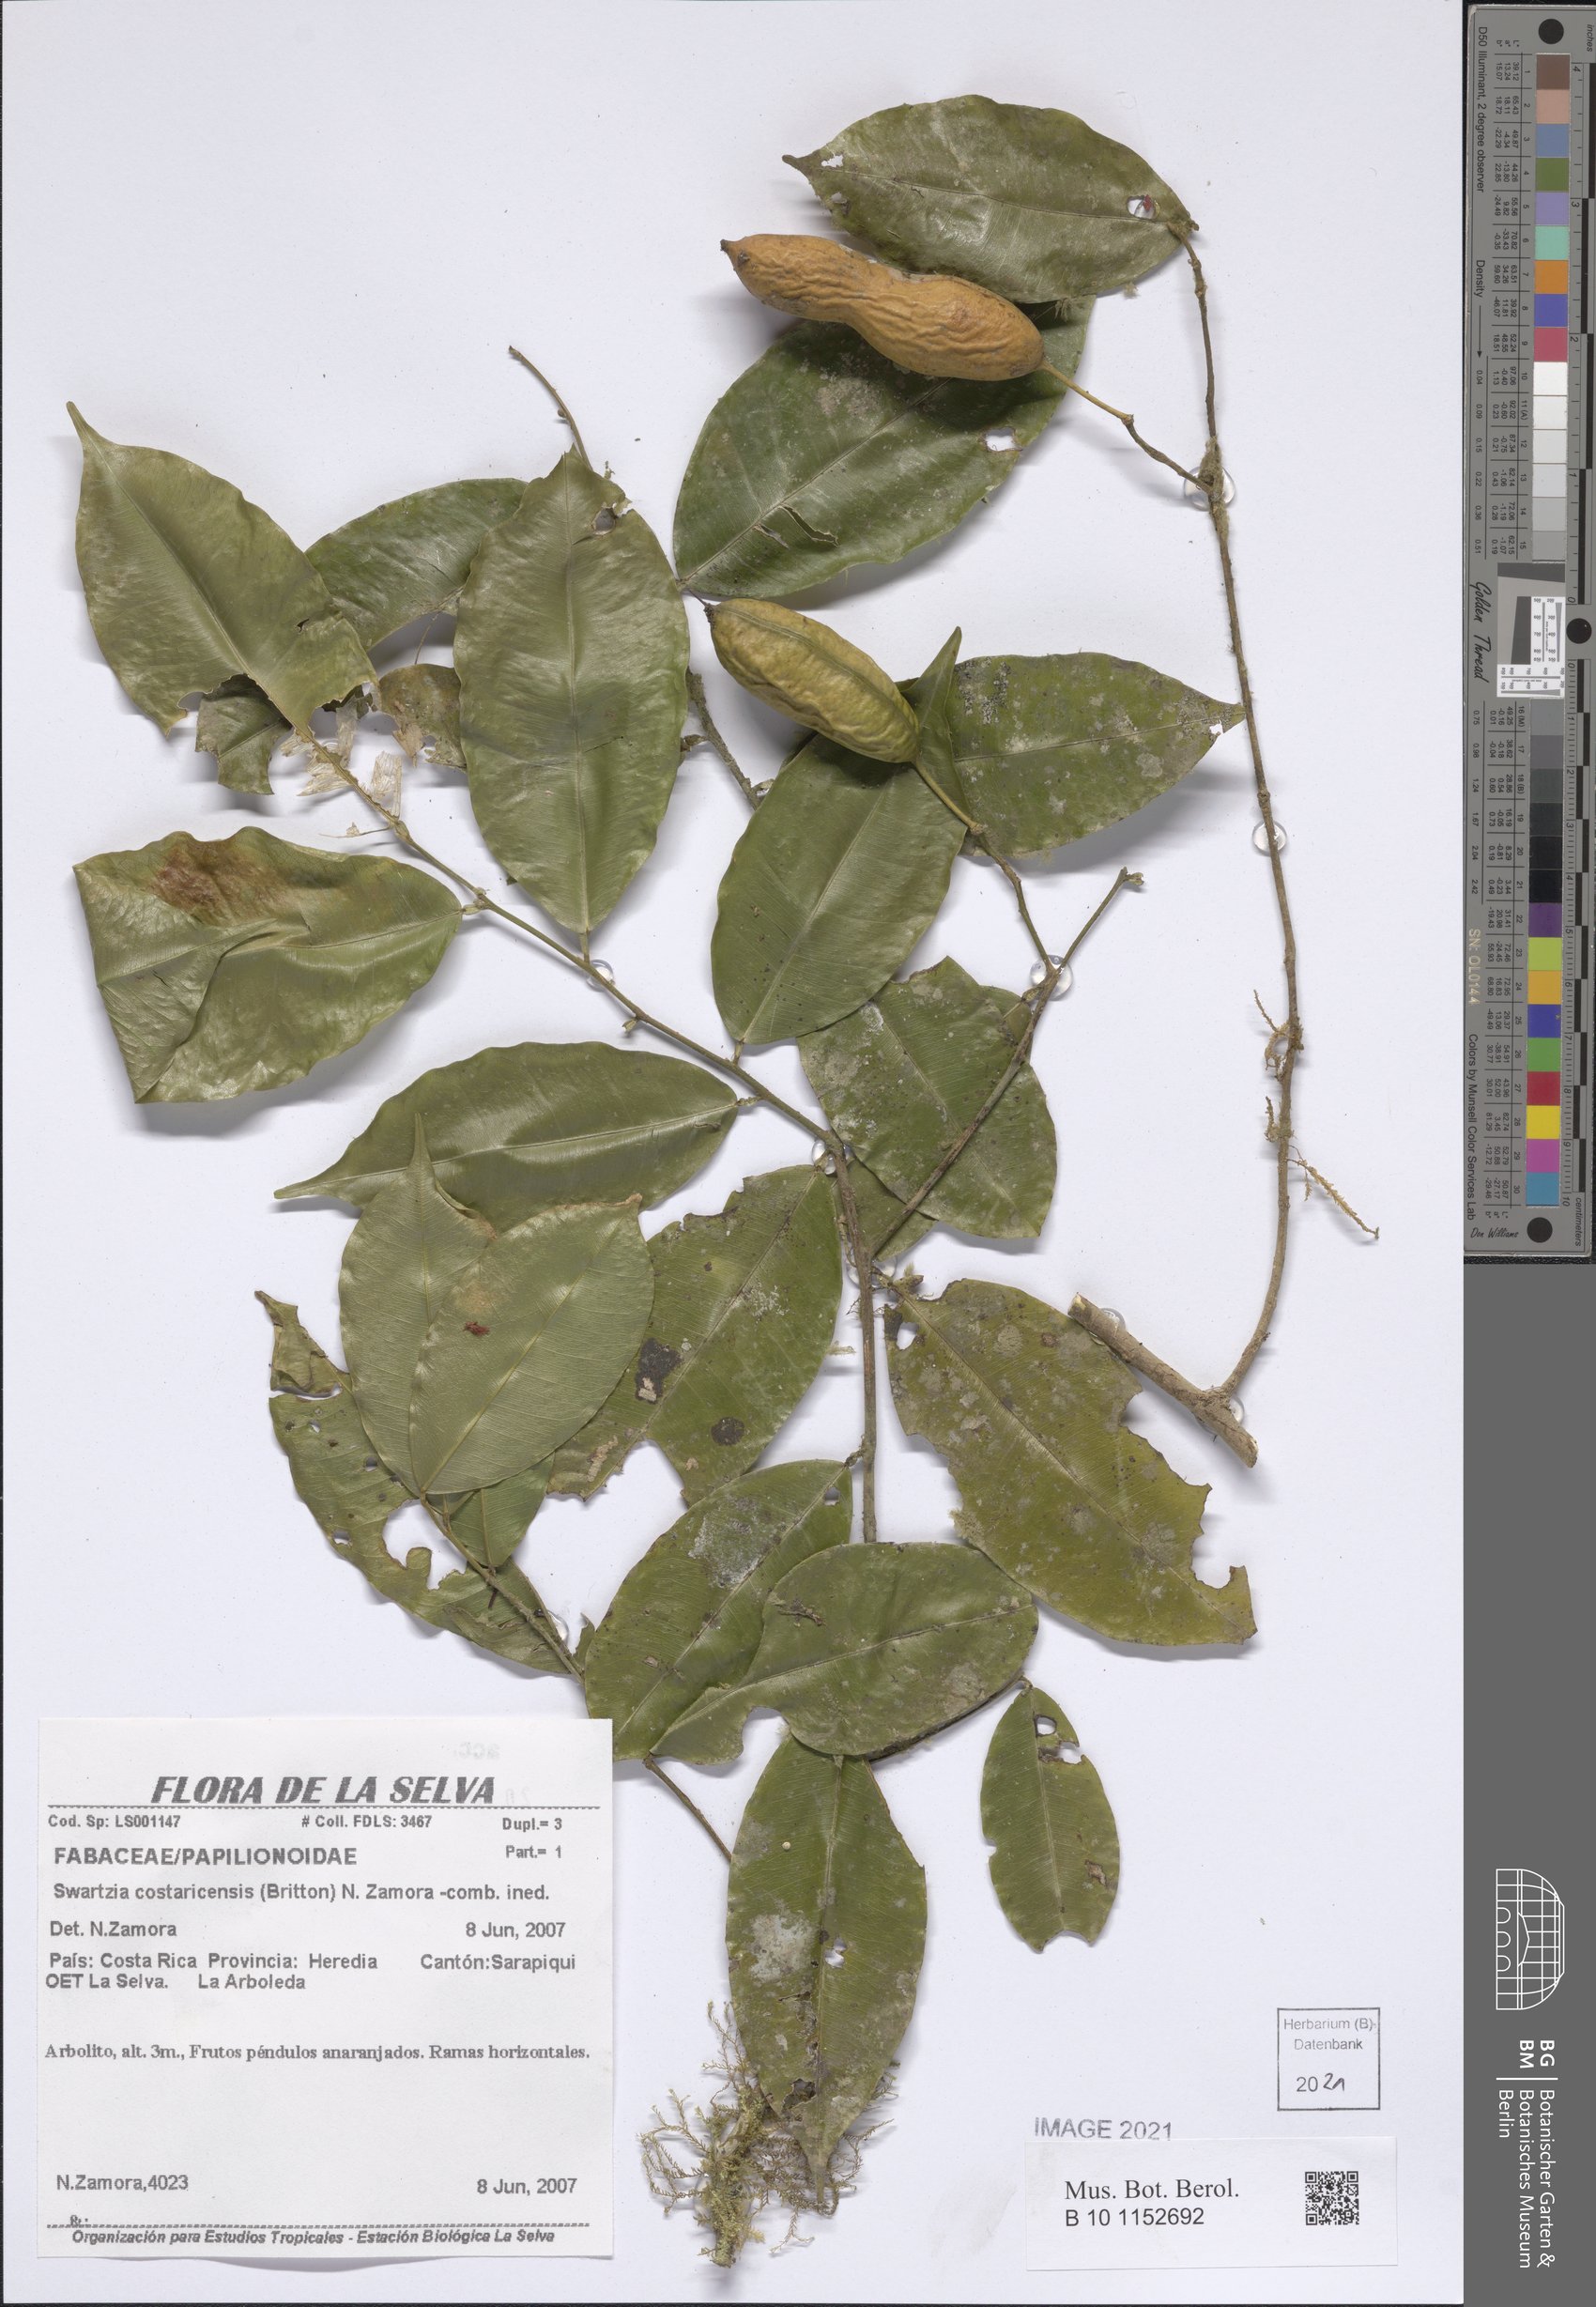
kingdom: Plantae
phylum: Tracheophyta
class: Magnoliopsida
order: Fabales
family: Fabaceae
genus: Swartzia
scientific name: Swartzia guatemalensis
